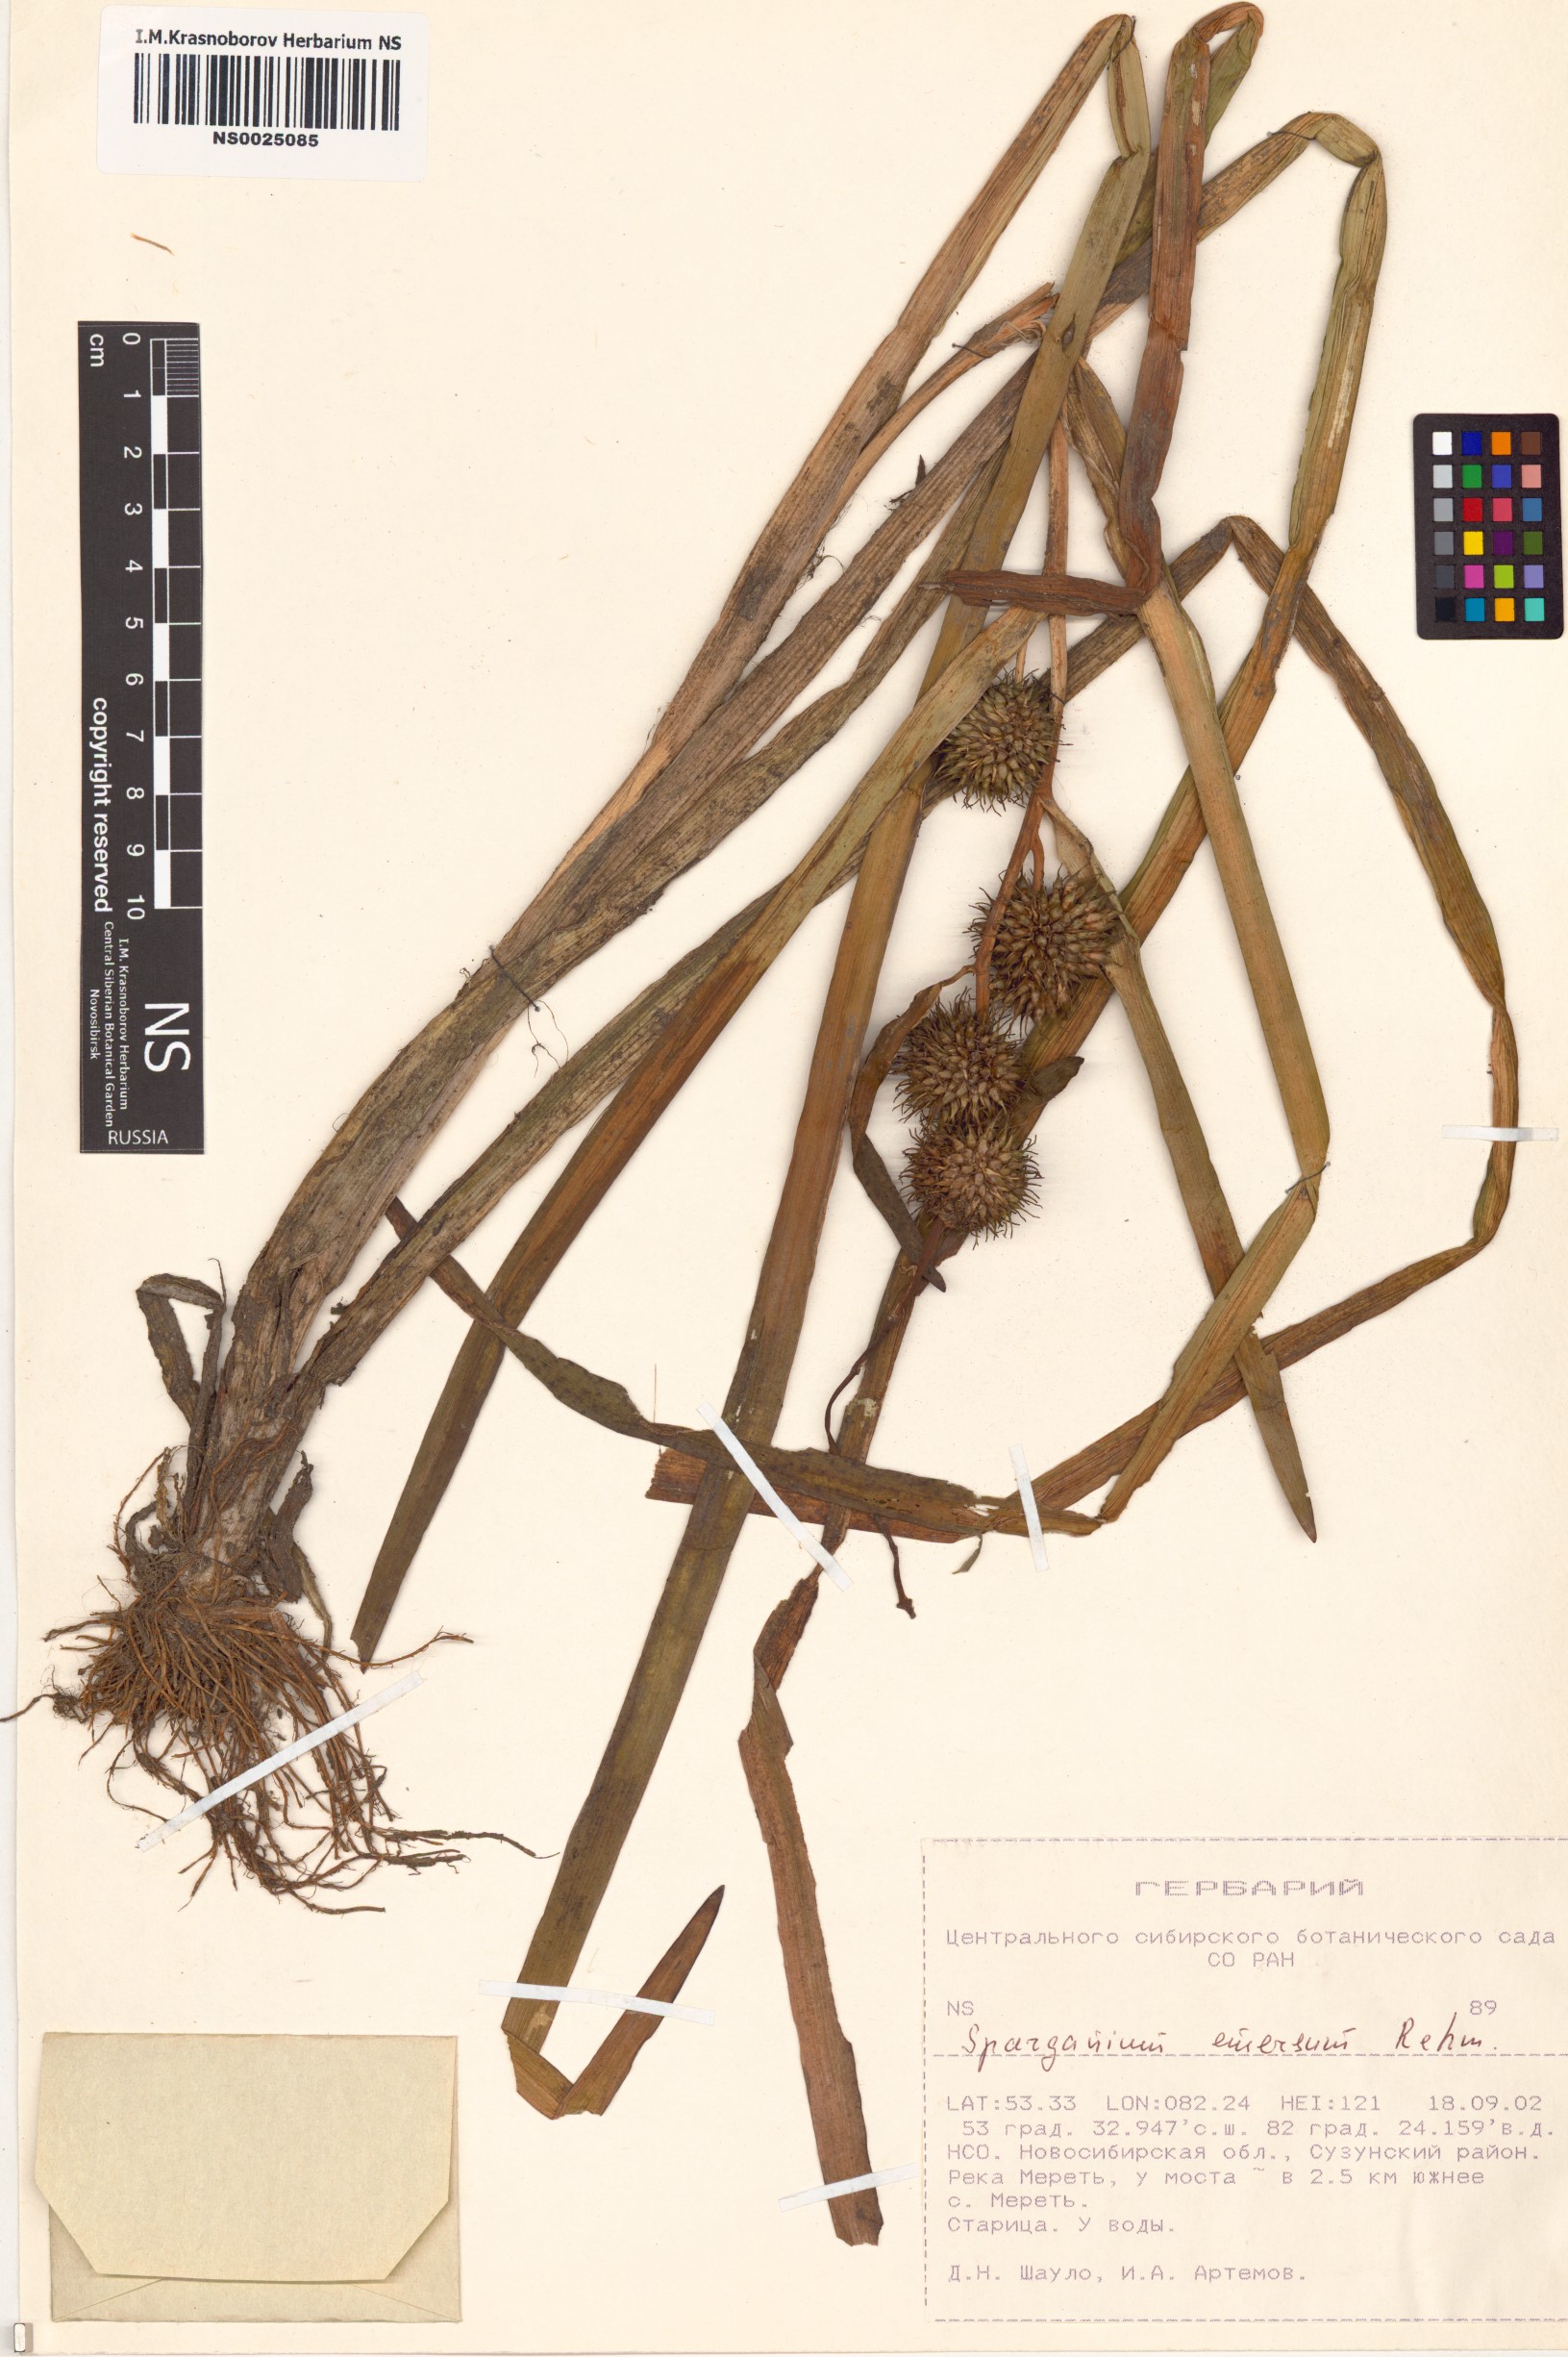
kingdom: Plantae
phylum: Tracheophyta
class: Liliopsida
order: Poales
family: Typhaceae
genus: Sparganium
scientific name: Sparganium emersum
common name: Unbranched bur-reed
